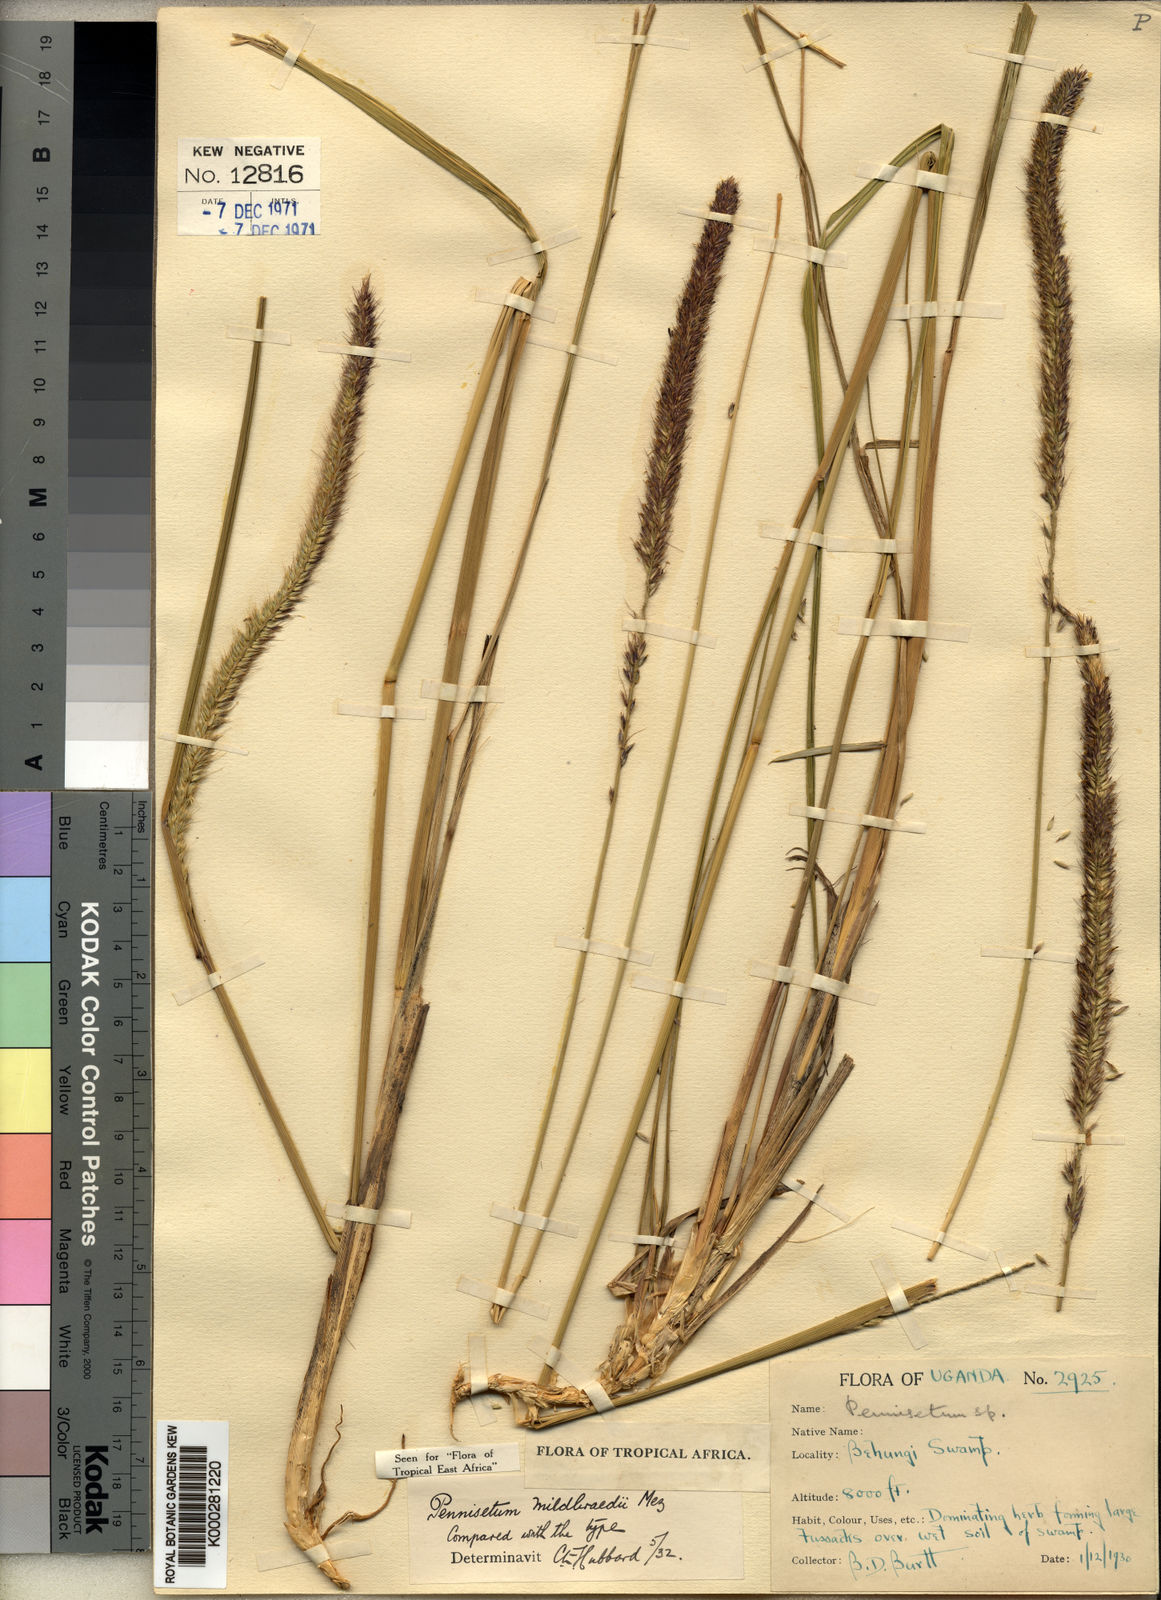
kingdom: Plantae
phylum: Tracheophyta
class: Liliopsida
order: Poales
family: Poaceae
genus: Cenchrus
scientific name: Cenchrus caudatus
